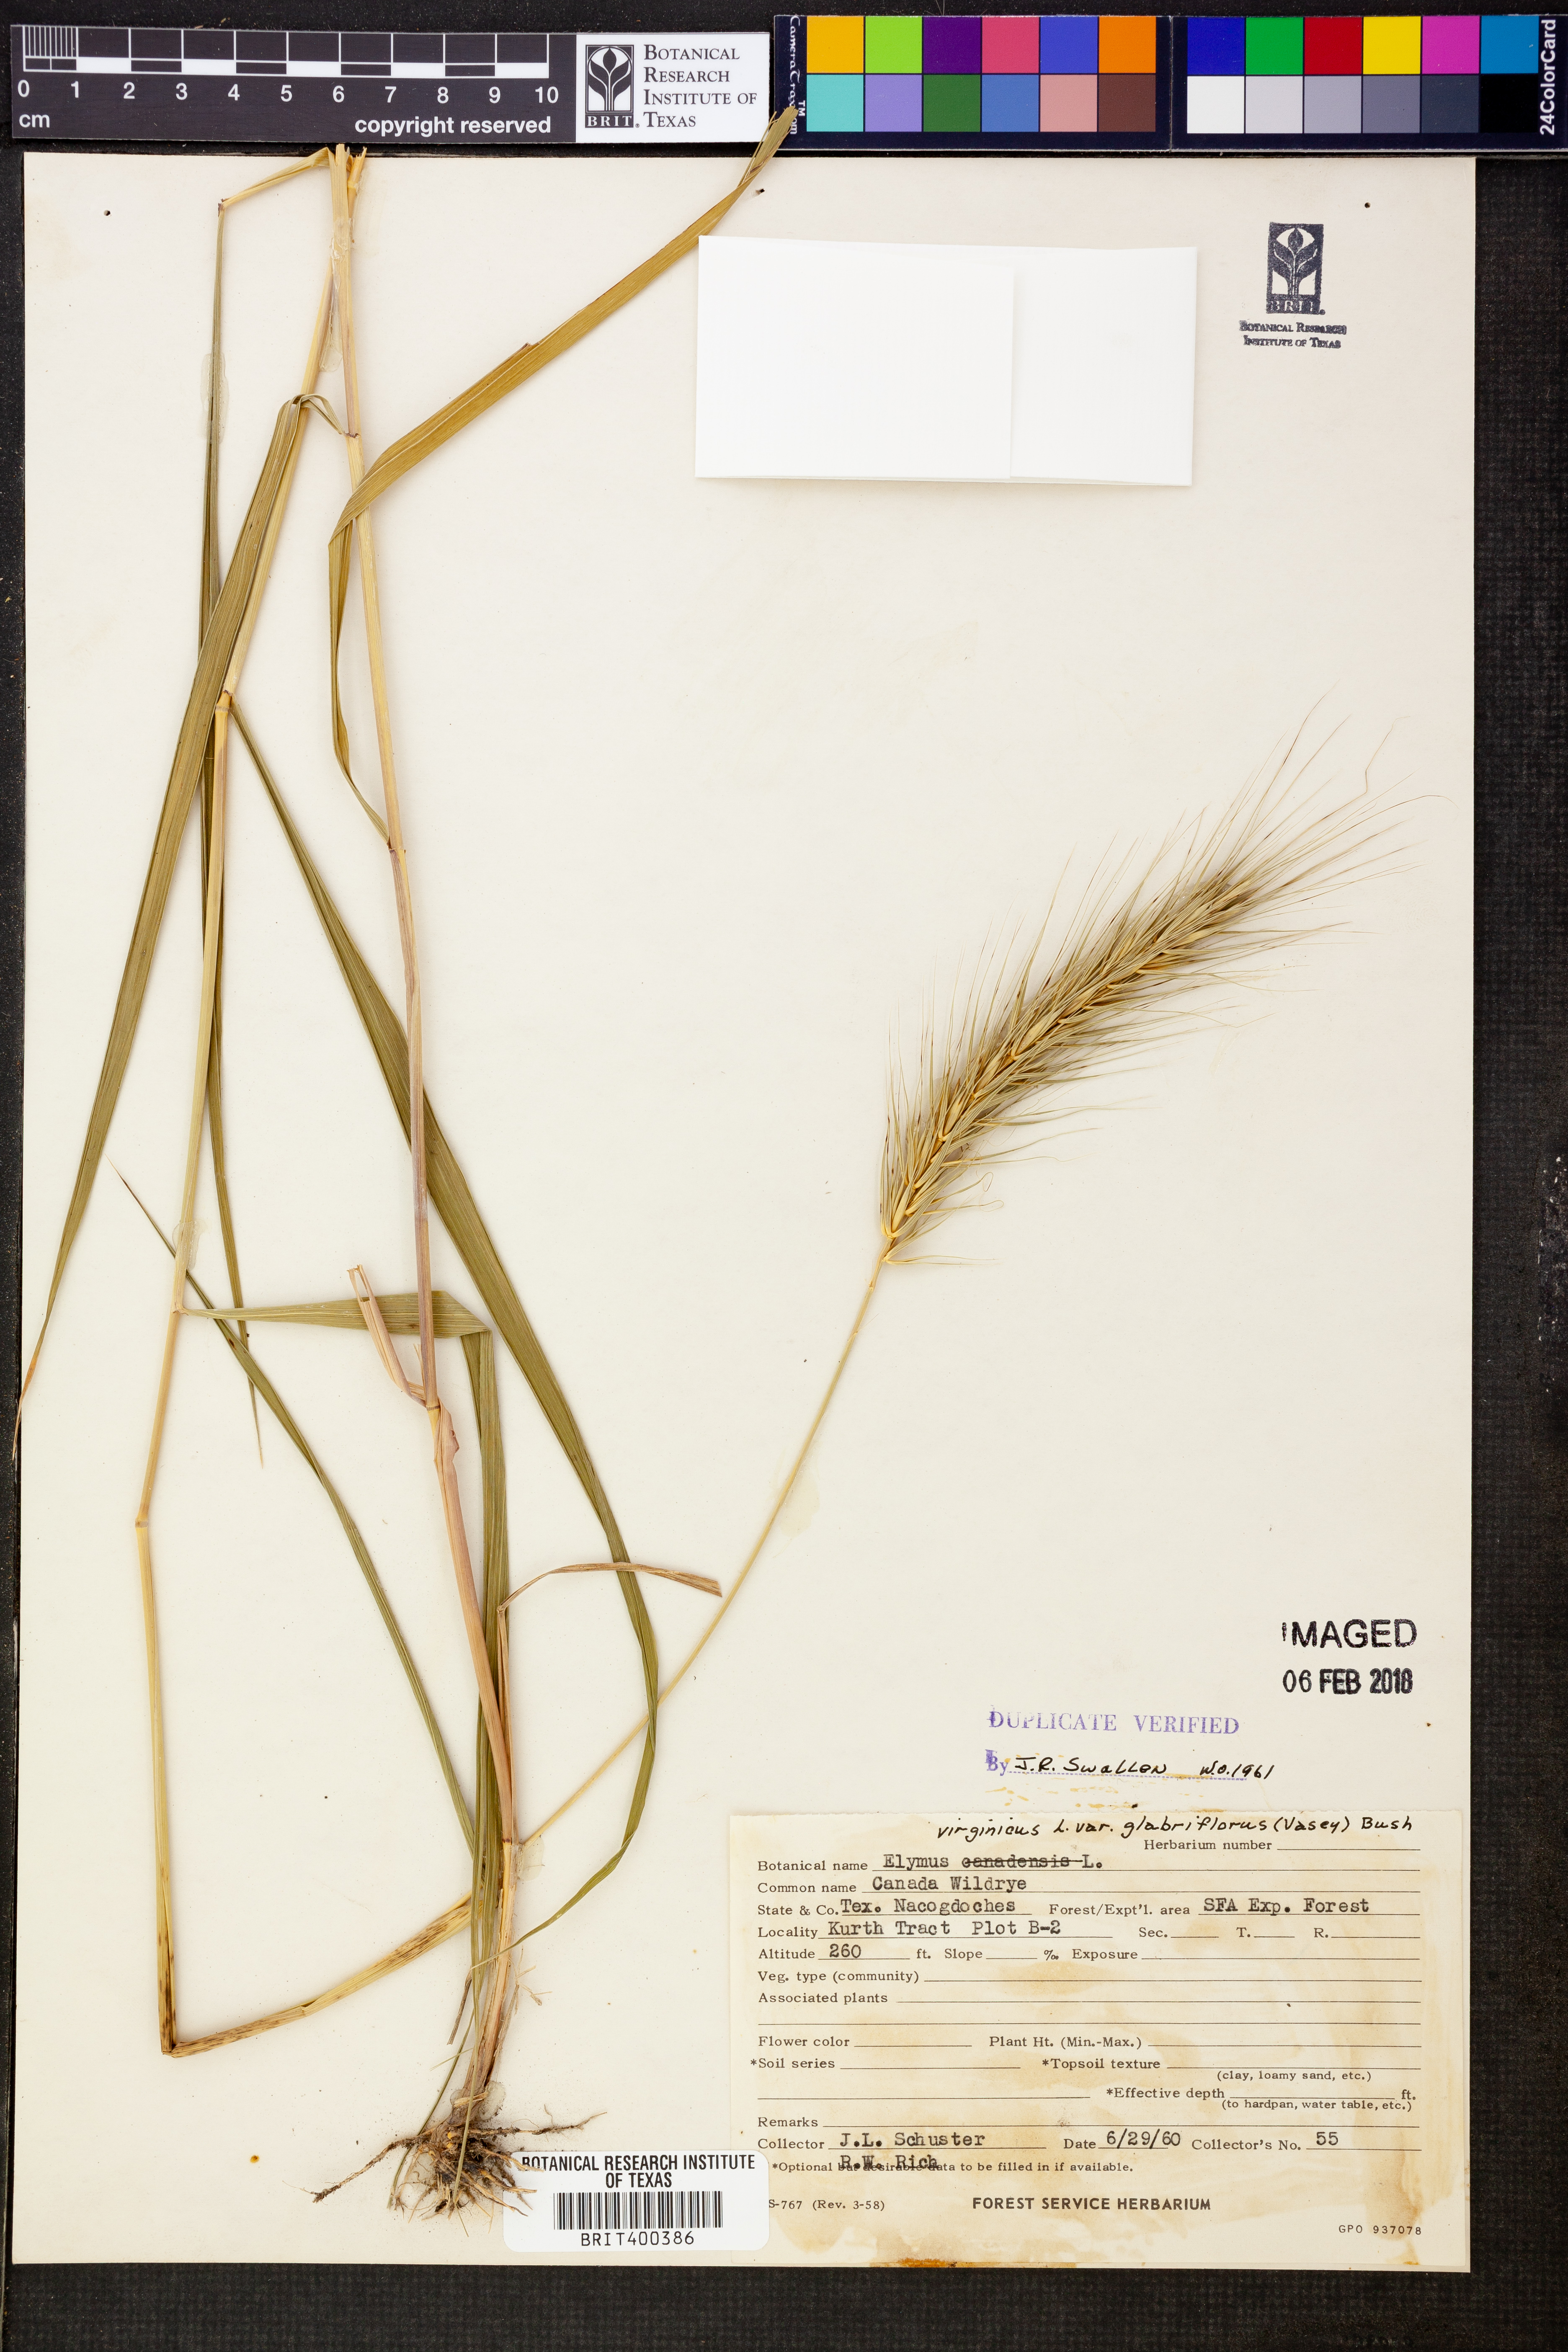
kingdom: Plantae
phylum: Tracheophyta
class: Liliopsida
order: Poales
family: Poaceae
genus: Elymus
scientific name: Elymus virginicus
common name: Common eastern wildrye
